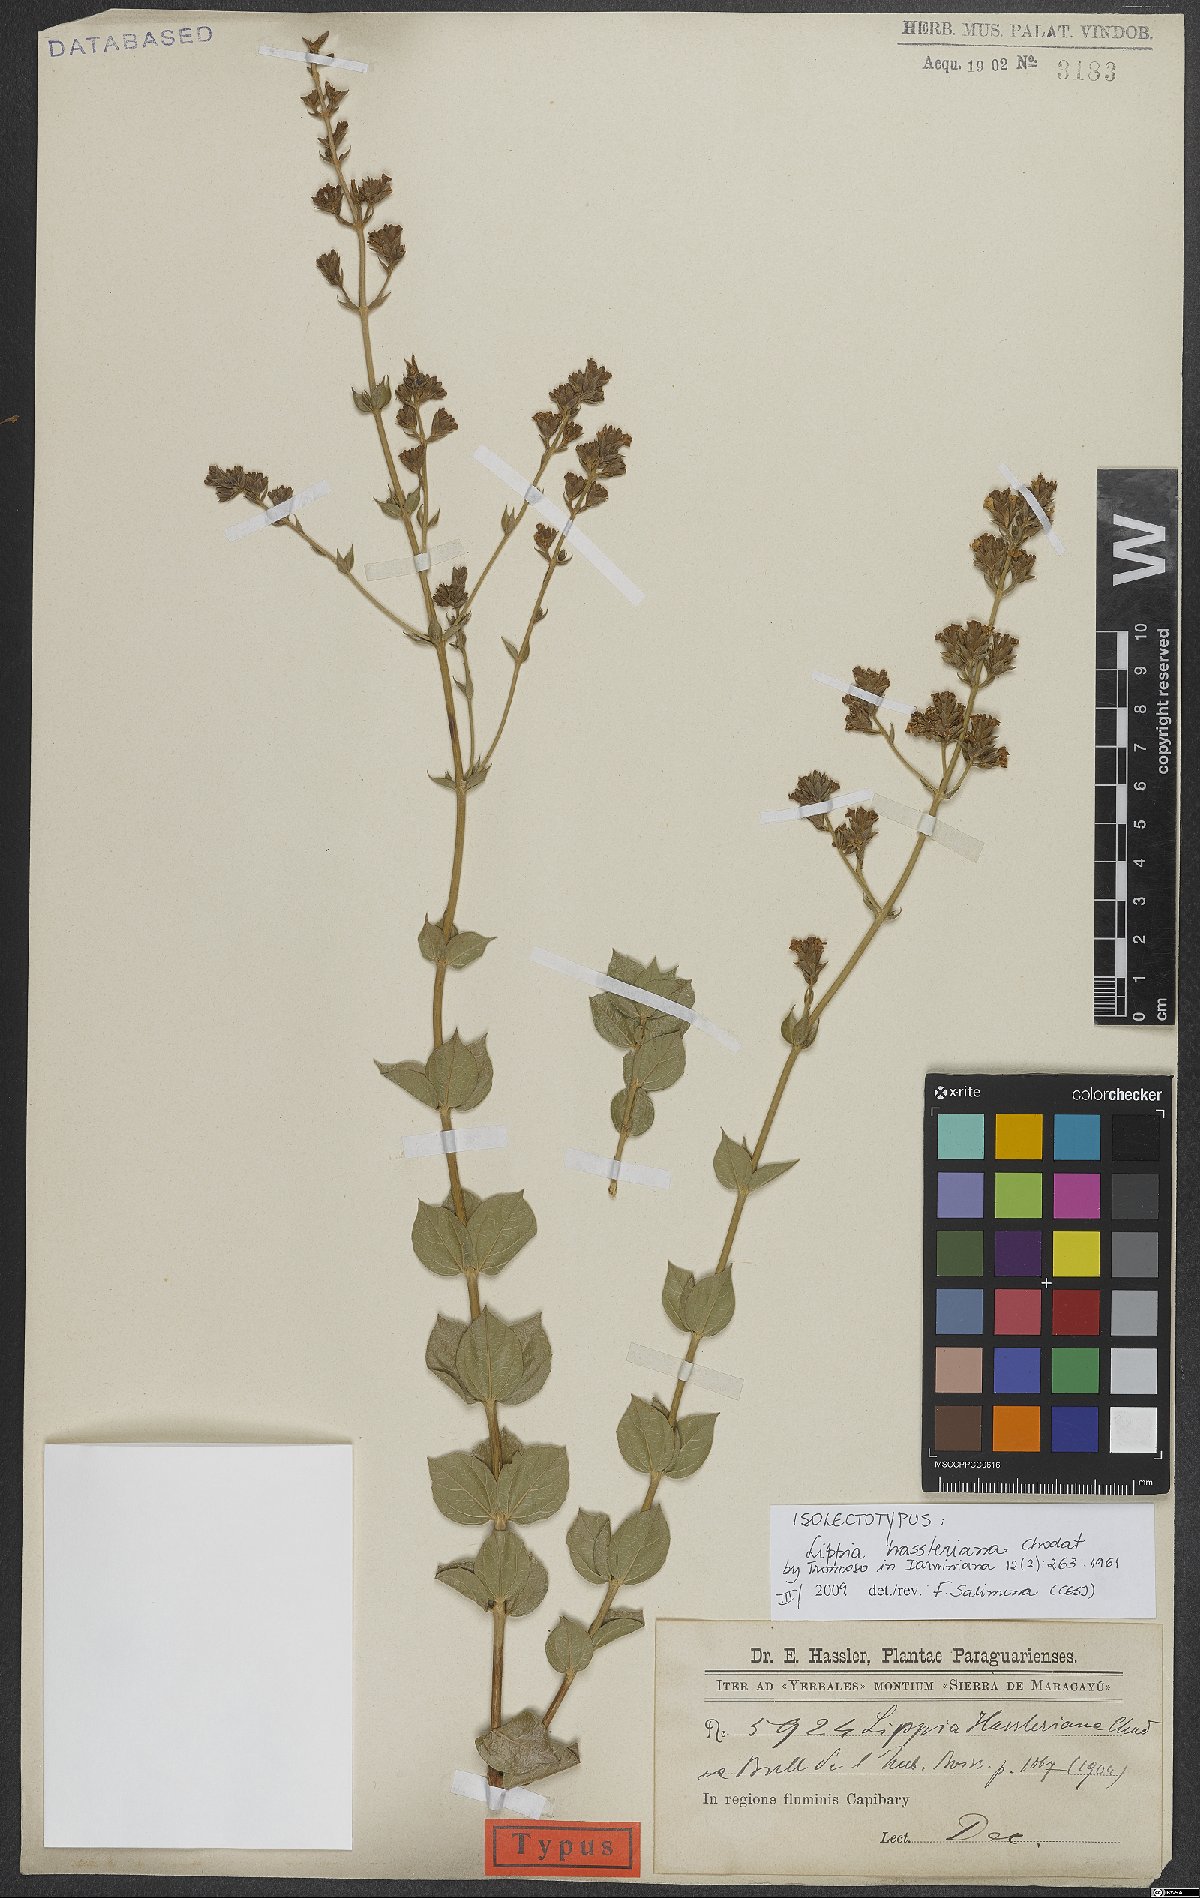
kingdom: Plantae
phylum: Tracheophyta
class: Magnoliopsida
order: Lamiales
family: Verbenaceae
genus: Lippia
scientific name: Lippia hassleriana
